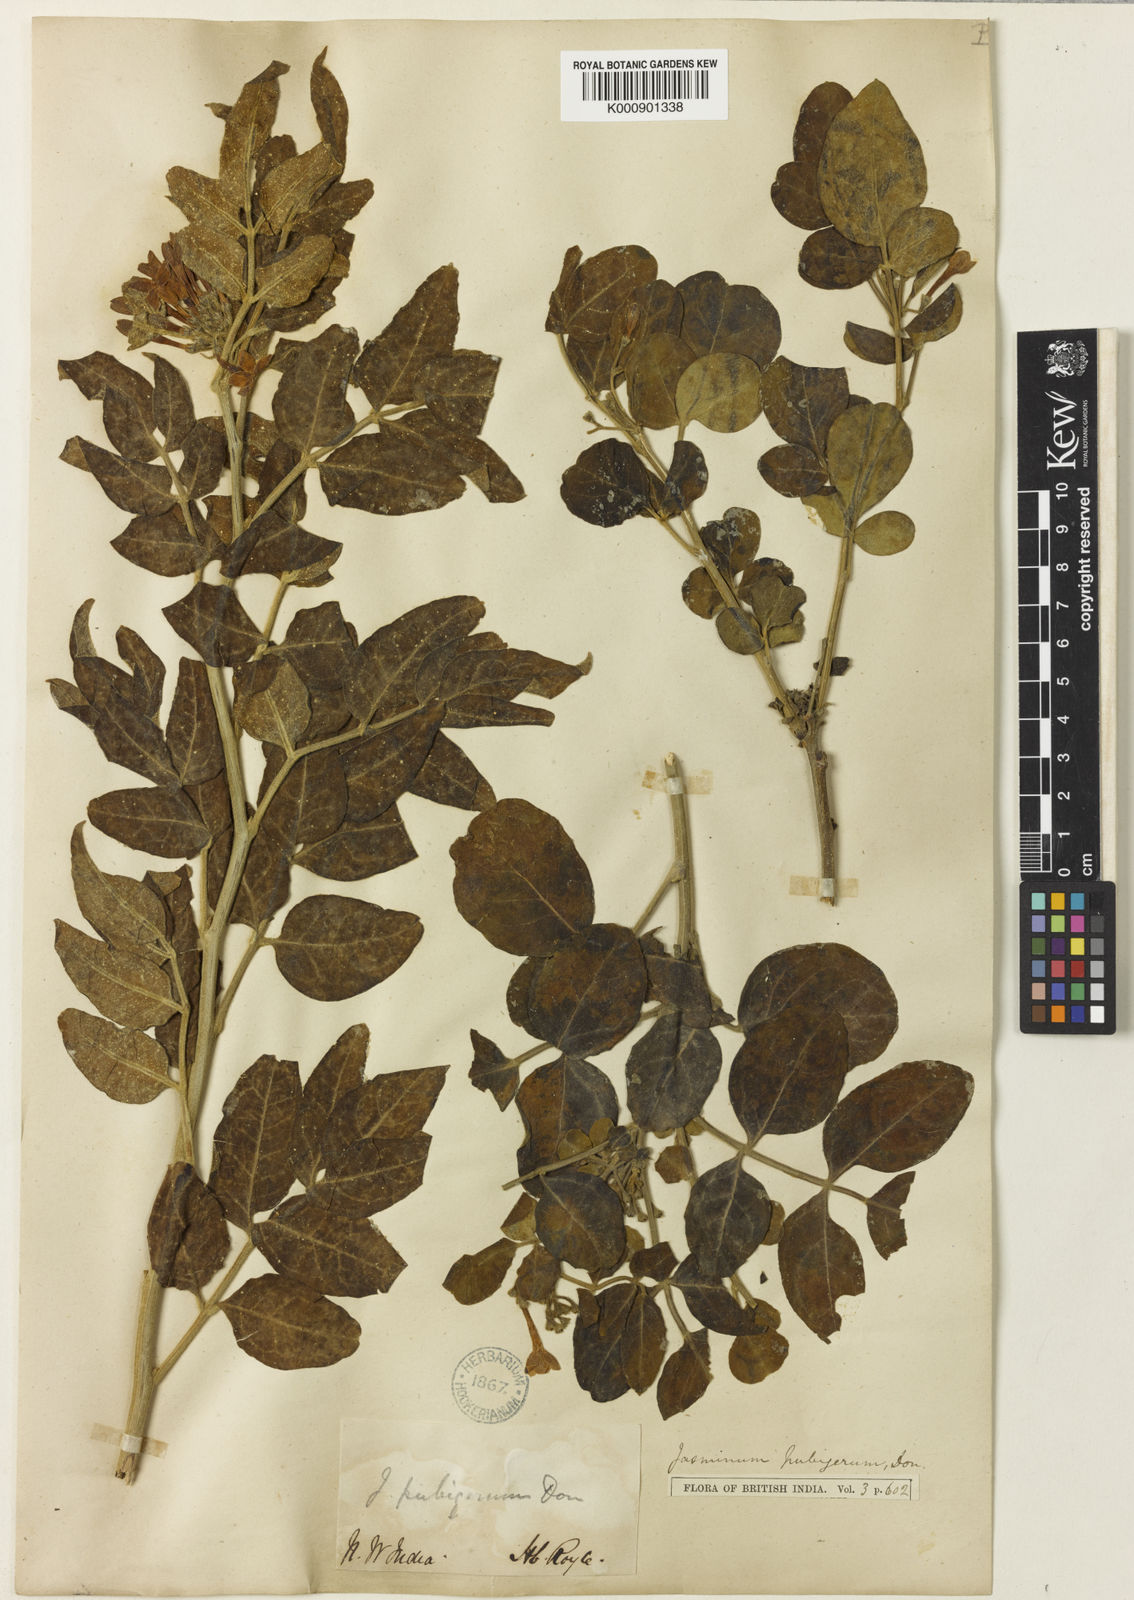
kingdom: Plantae
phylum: Tracheophyta
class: Magnoliopsida
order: Lamiales
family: Oleaceae
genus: Chrysojasminum
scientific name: Chrysojasminum humile
